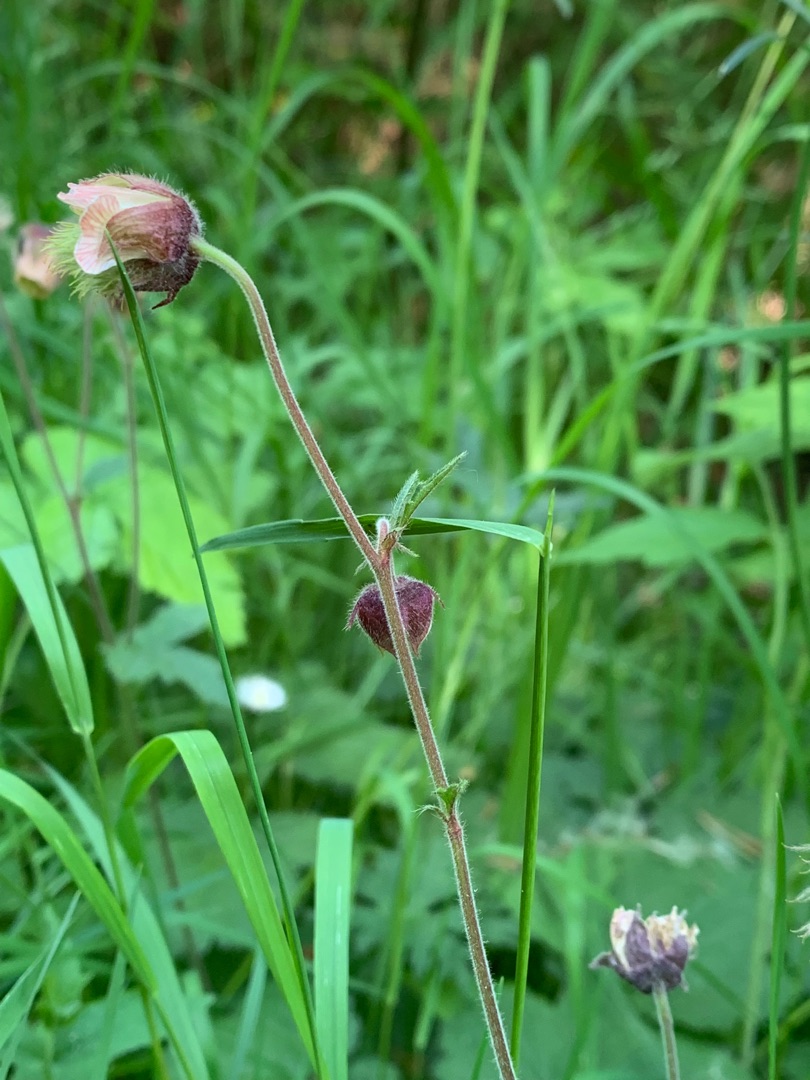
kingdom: Plantae
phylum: Tracheophyta
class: Magnoliopsida
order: Rosales
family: Rosaceae
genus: Geum
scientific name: Geum rivale
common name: Eng-nellikerod
